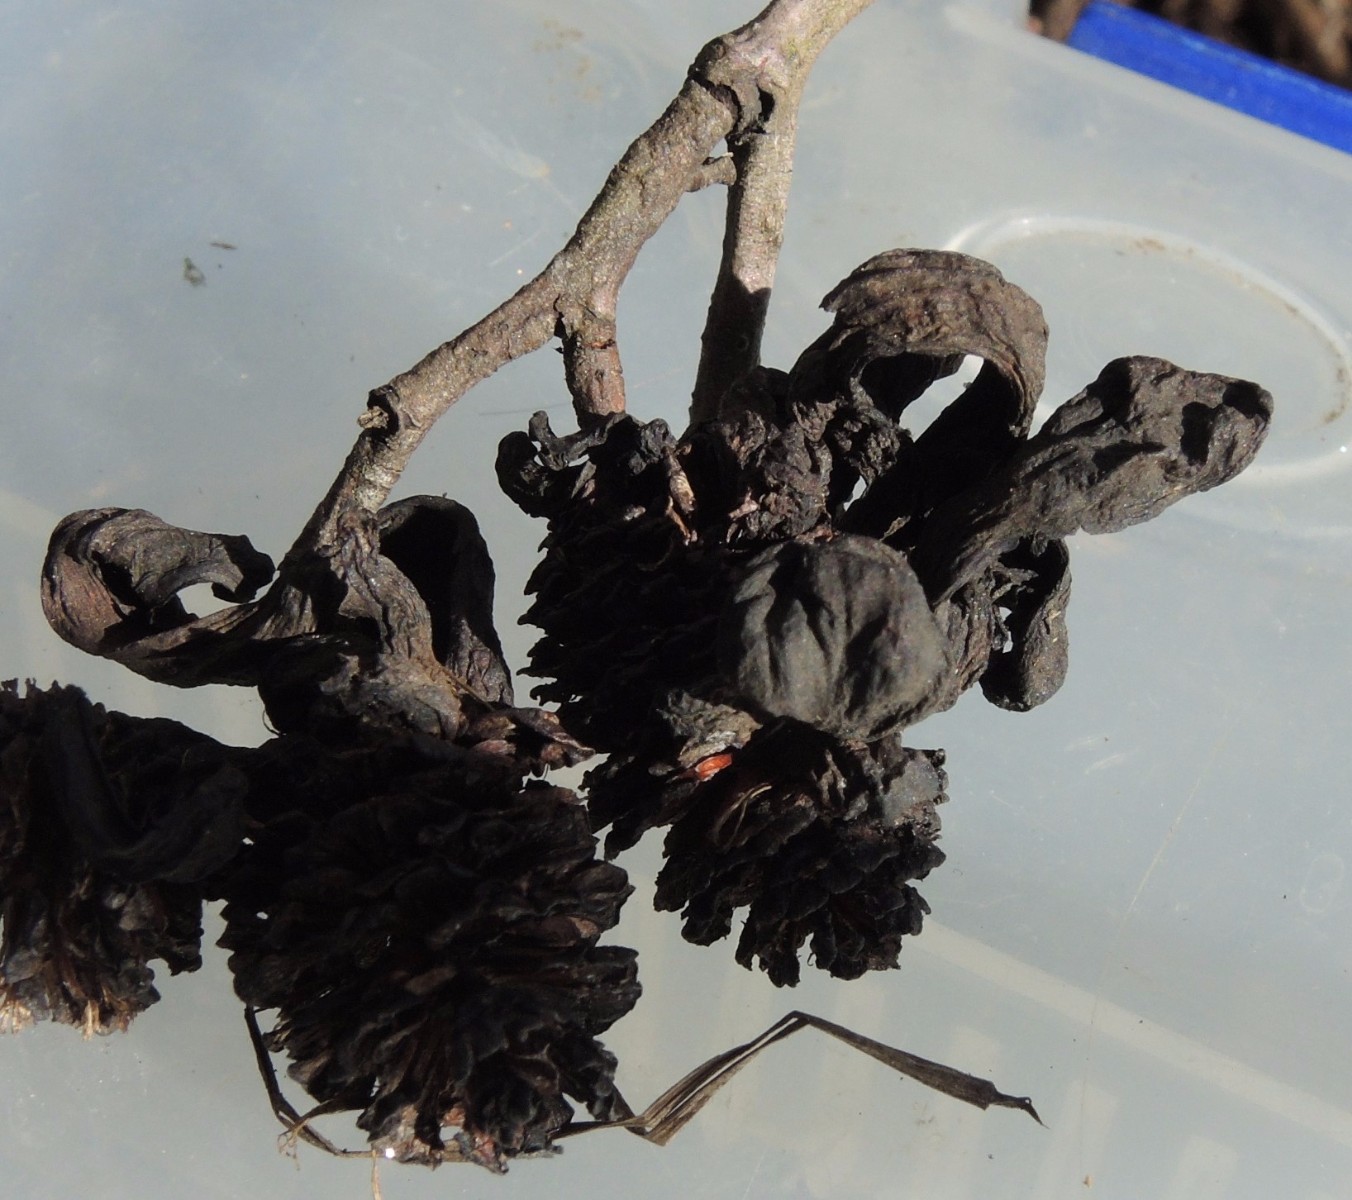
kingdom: Fungi
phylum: Ascomycota
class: Taphrinomycetes
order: Taphrinales
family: Taphrinaceae
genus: Taphrina
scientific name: Taphrina alni
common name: Alder tongue
